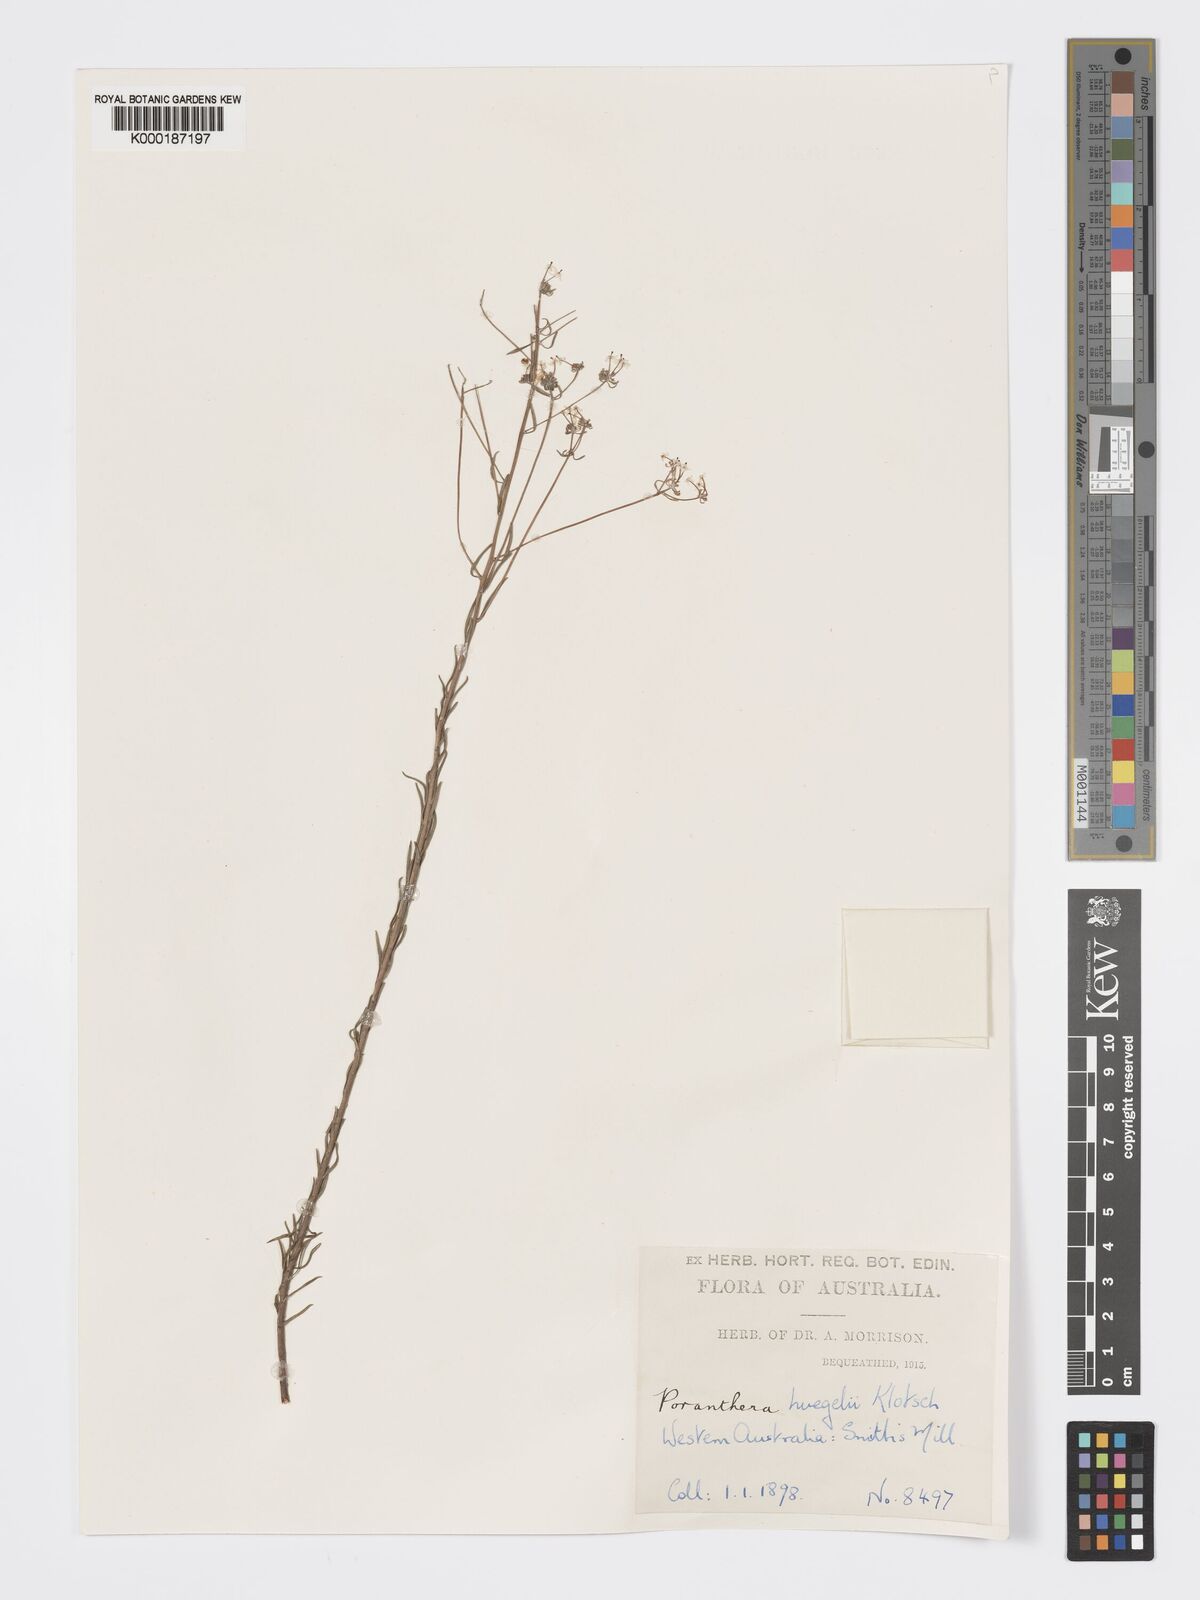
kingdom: Plantae
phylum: Tracheophyta
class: Magnoliopsida
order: Malpighiales
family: Phyllanthaceae
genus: Poranthera
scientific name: Poranthera huegelii
